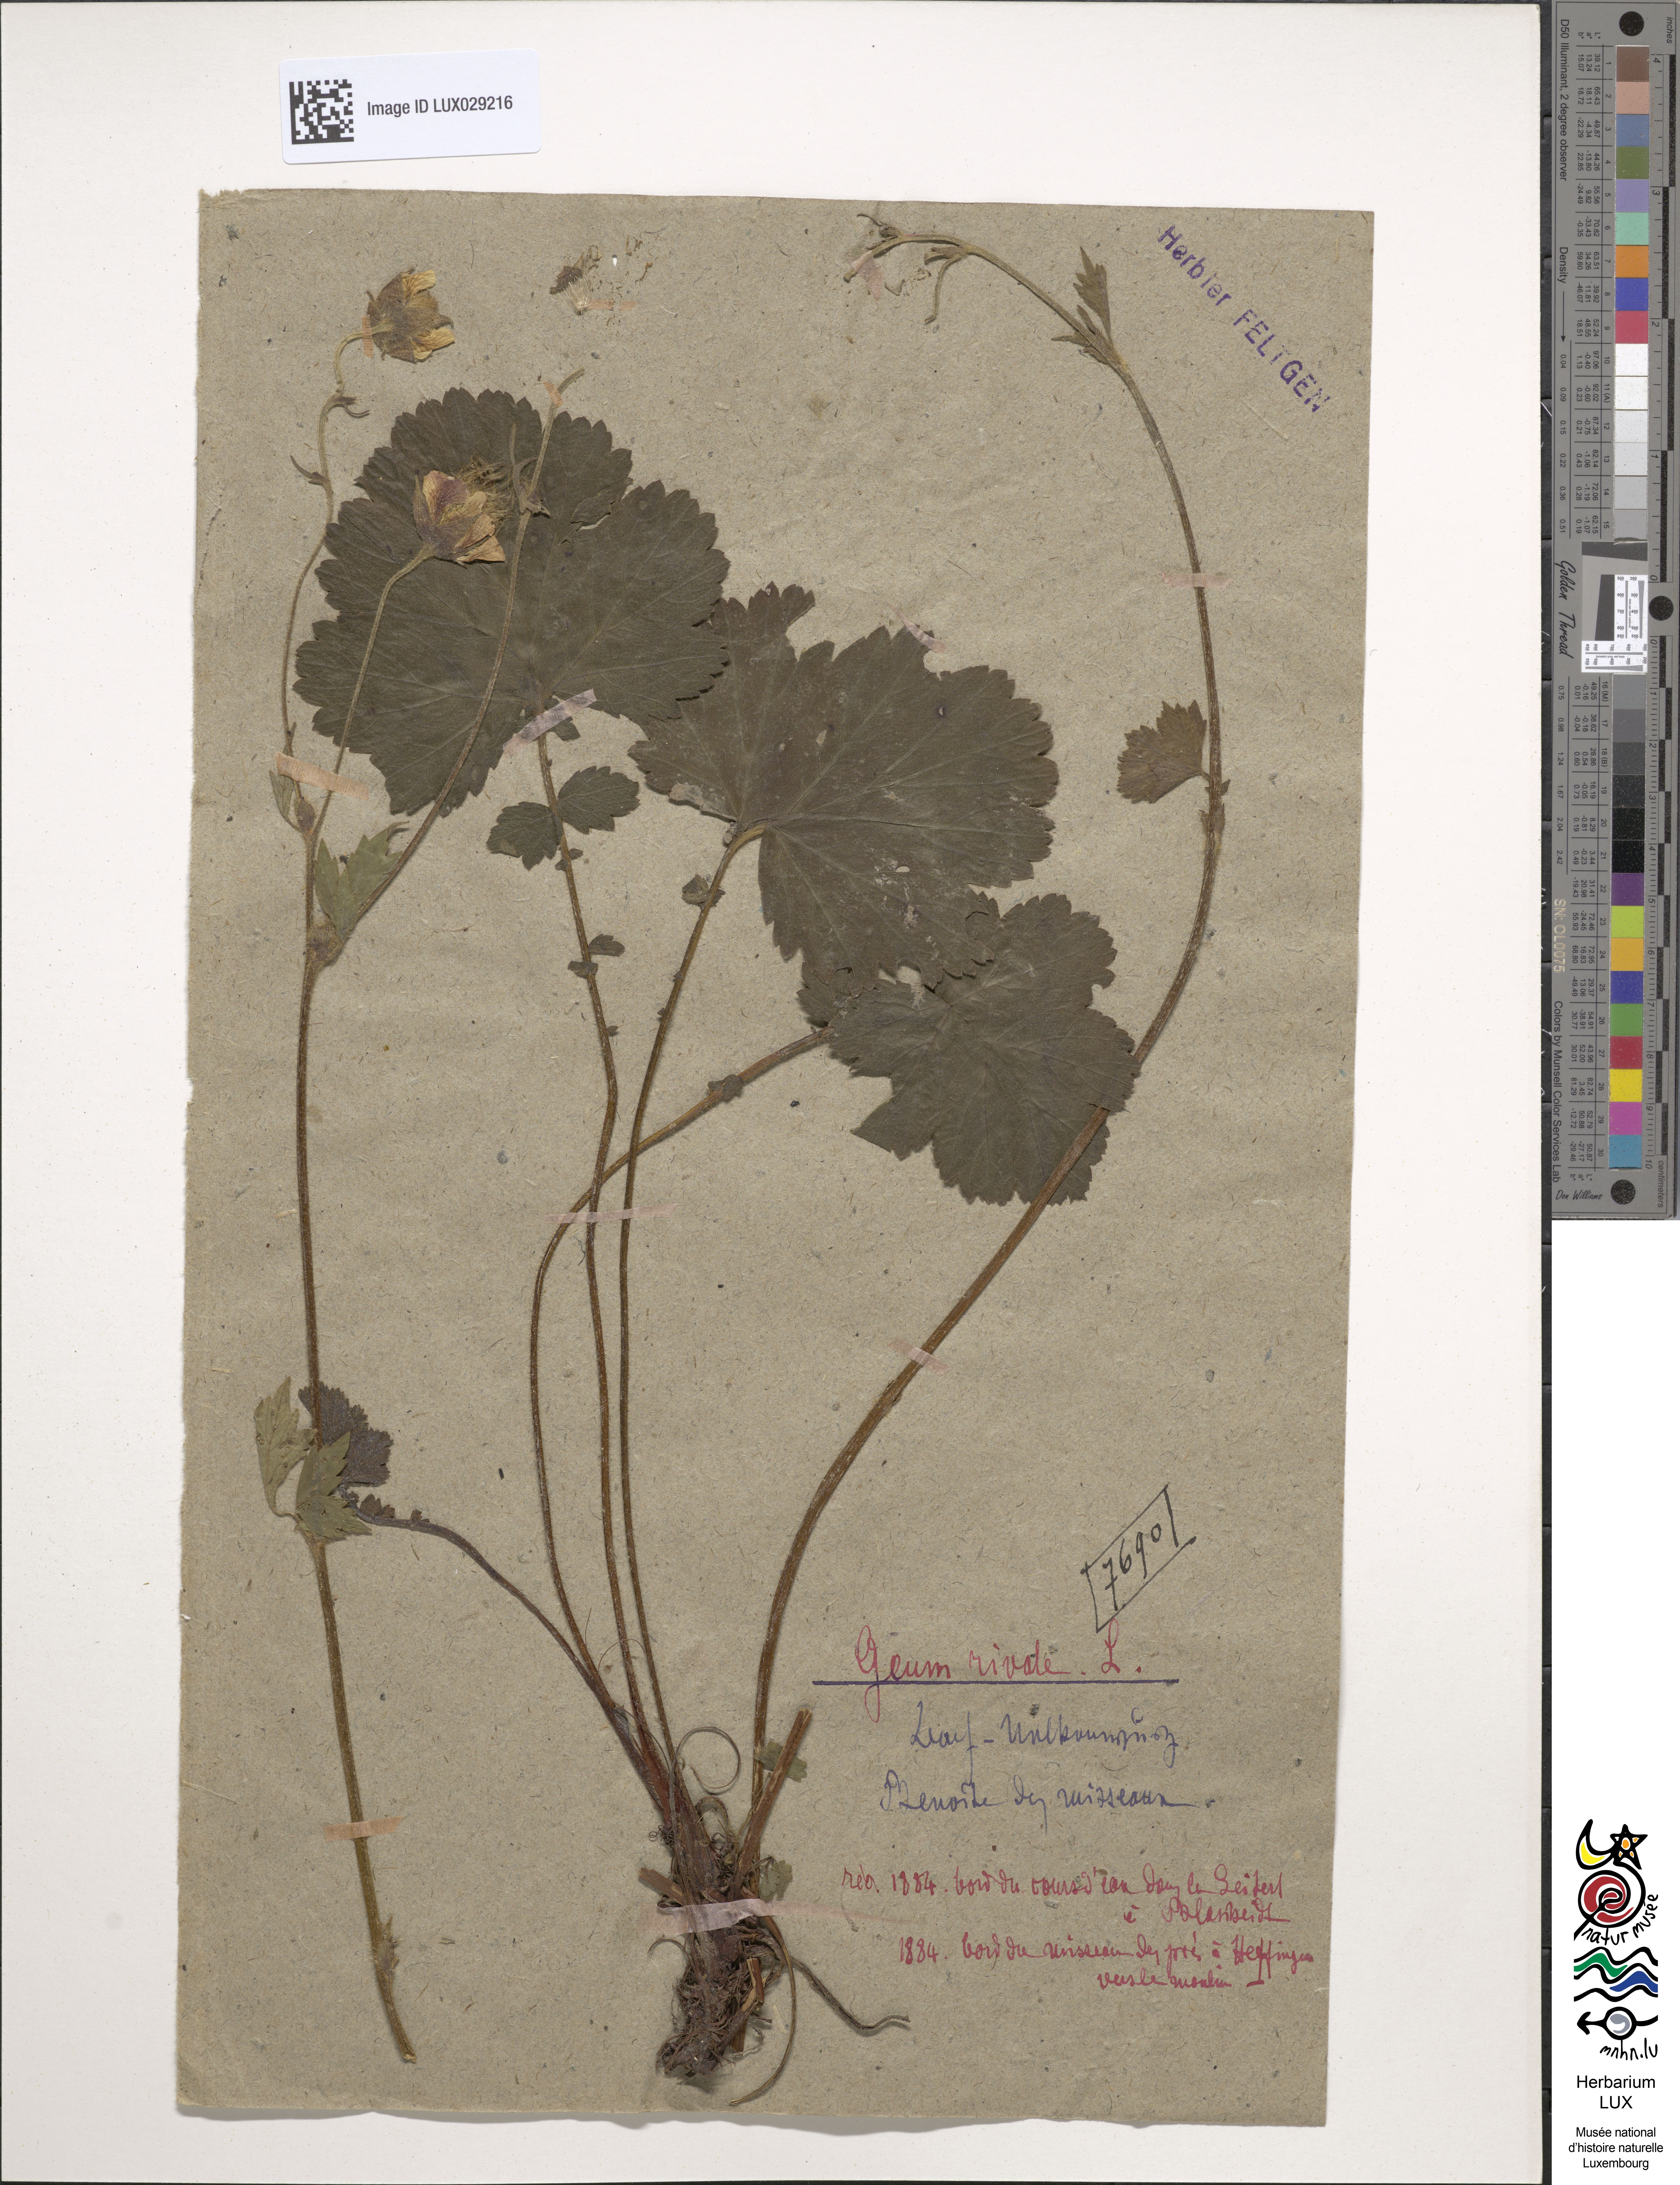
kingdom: Plantae
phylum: Tracheophyta
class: Magnoliopsida
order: Rosales
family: Rosaceae
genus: Geum
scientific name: Geum rivale
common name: Water avens
